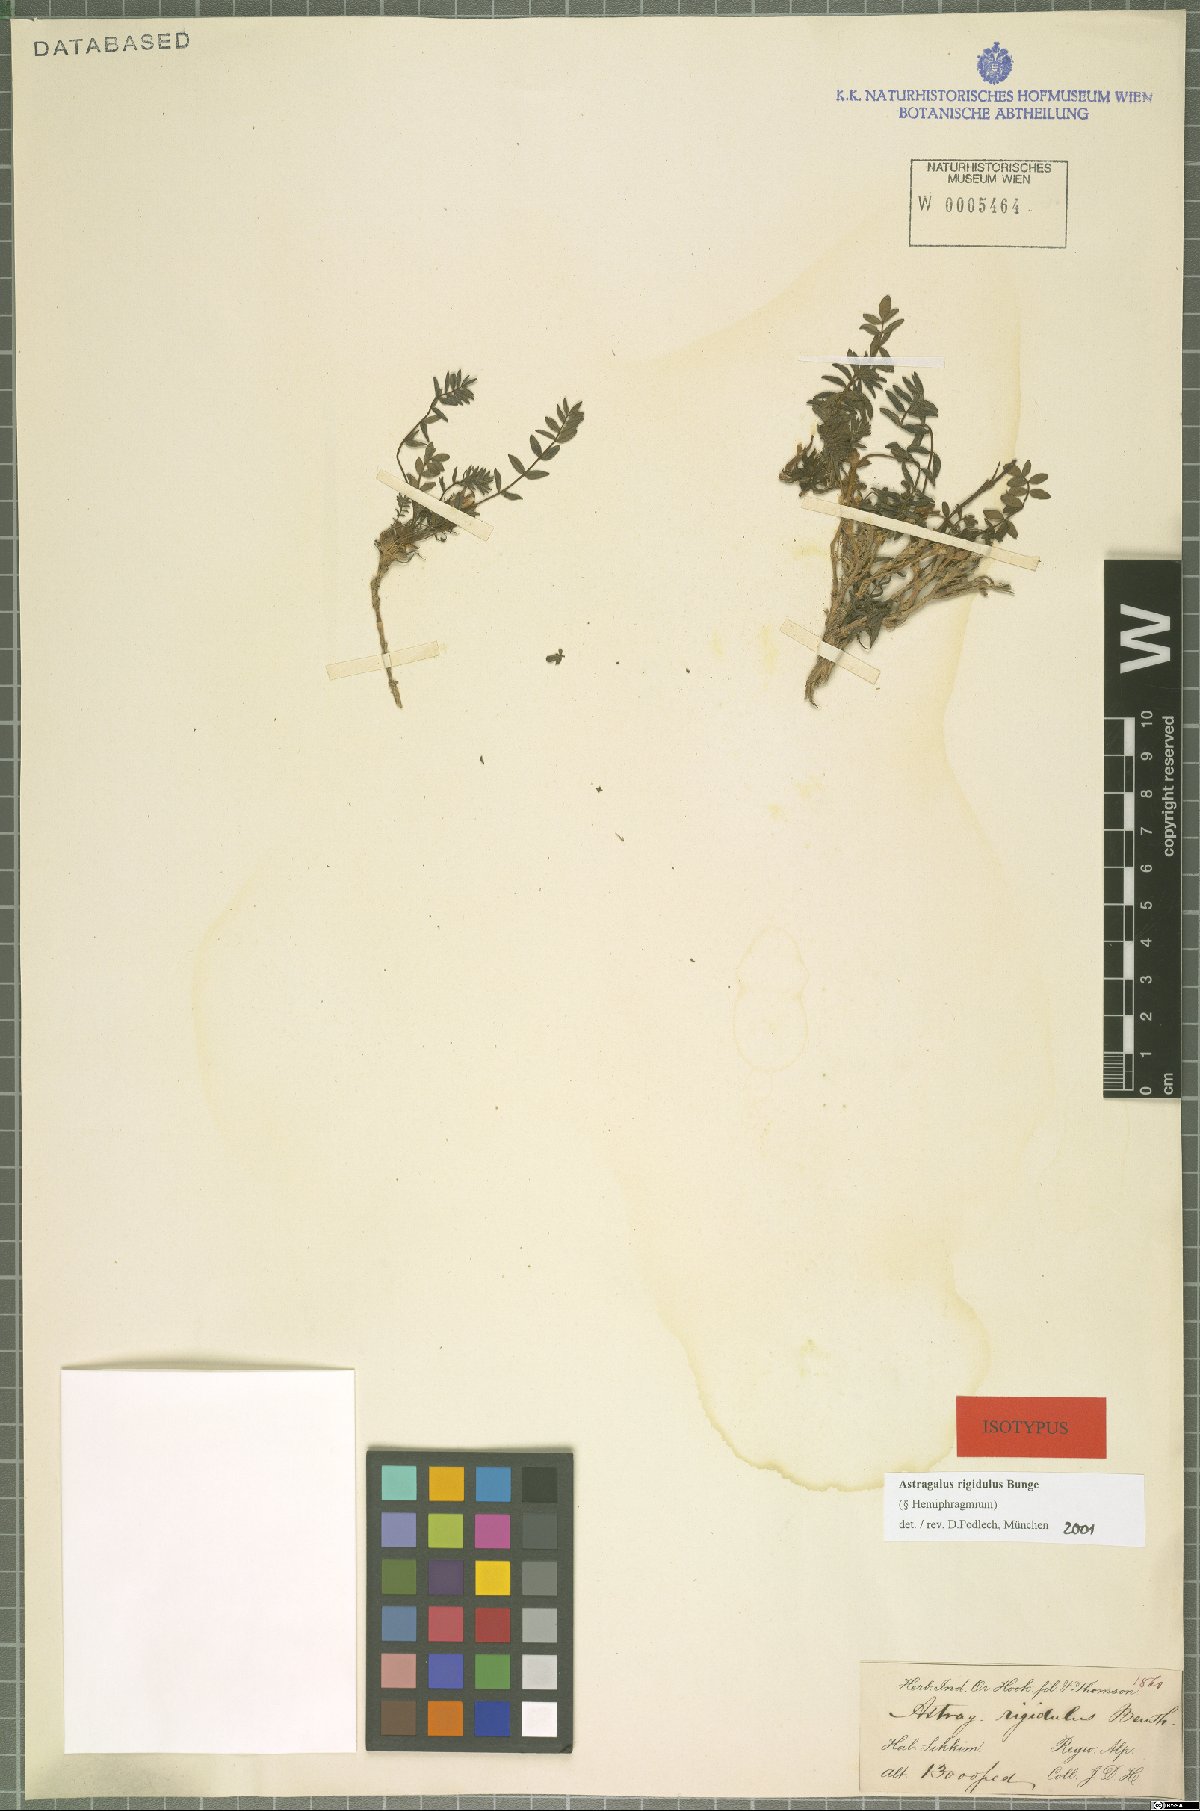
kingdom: Plantae
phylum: Tracheophyta
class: Magnoliopsida
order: Fabales
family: Fabaceae
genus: Astragalus
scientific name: Astragalus rigidulus
